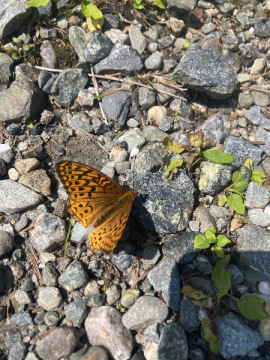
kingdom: Animalia
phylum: Arthropoda
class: Insecta
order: Lepidoptera
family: Nymphalidae
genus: Speyeria
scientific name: Speyeria atlantis
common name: Atlantis Fritillary
